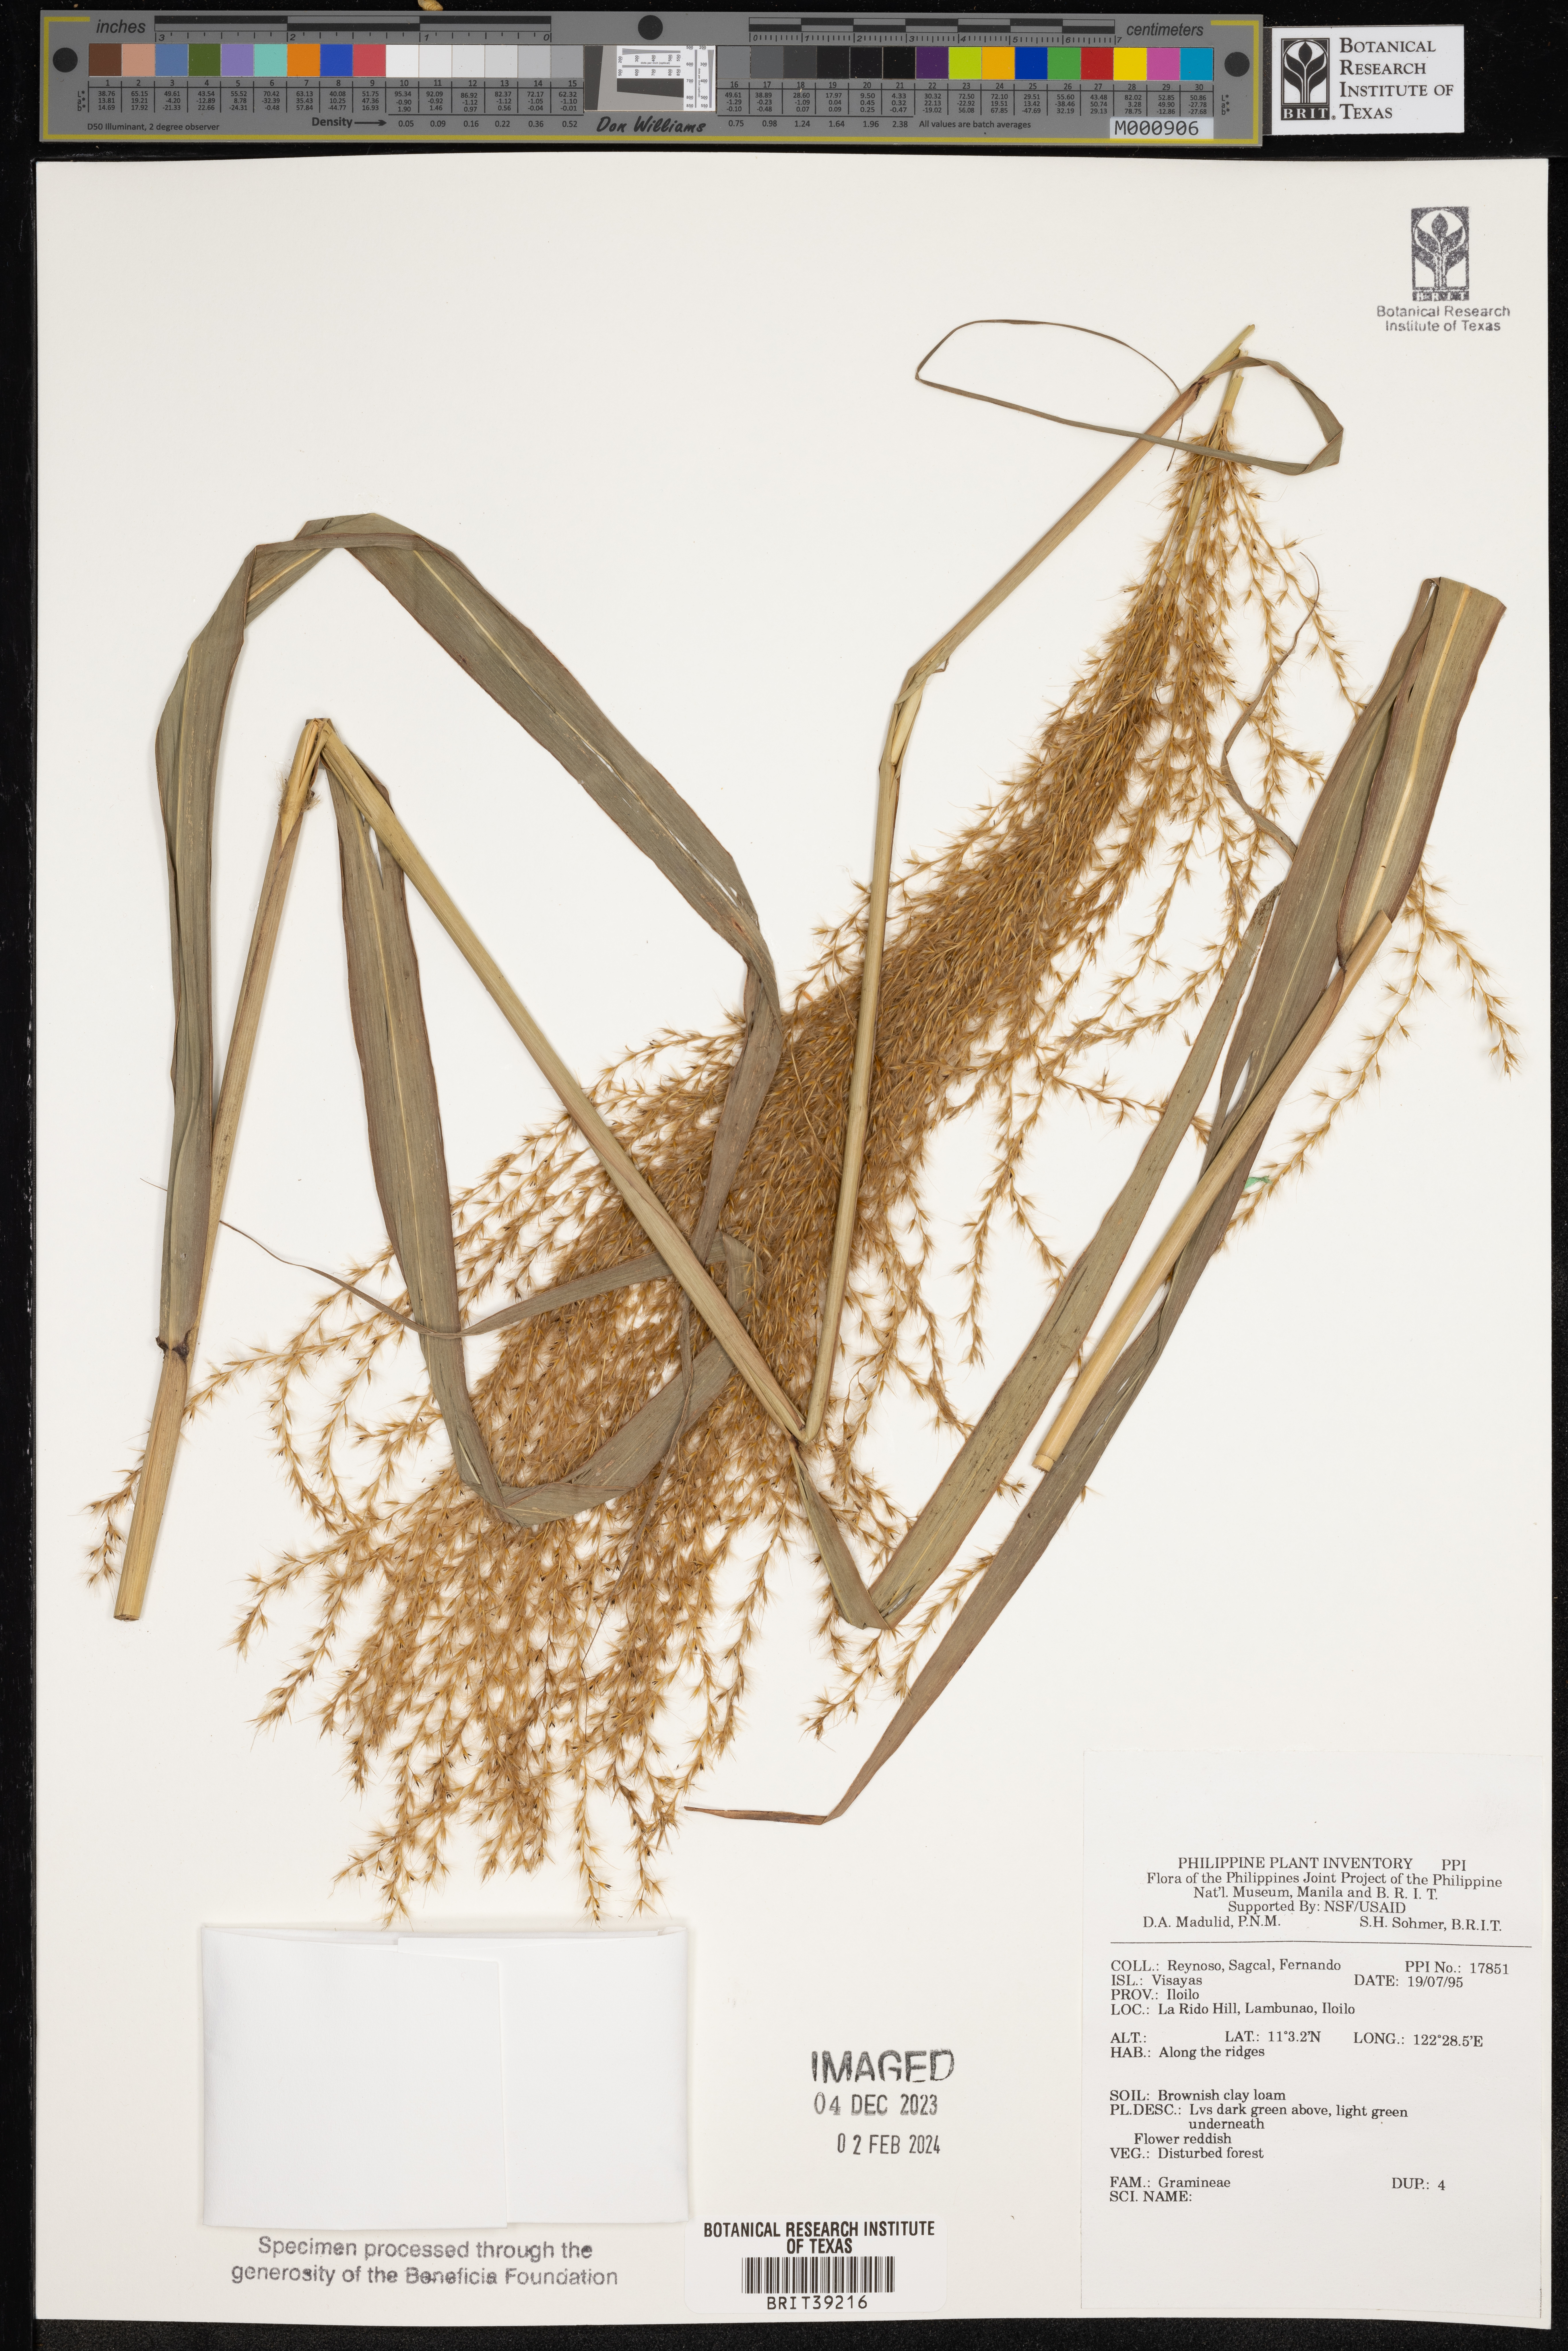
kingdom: Plantae
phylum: Tracheophyta
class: Liliopsida
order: Poales
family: Poaceae
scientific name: Poaceae
